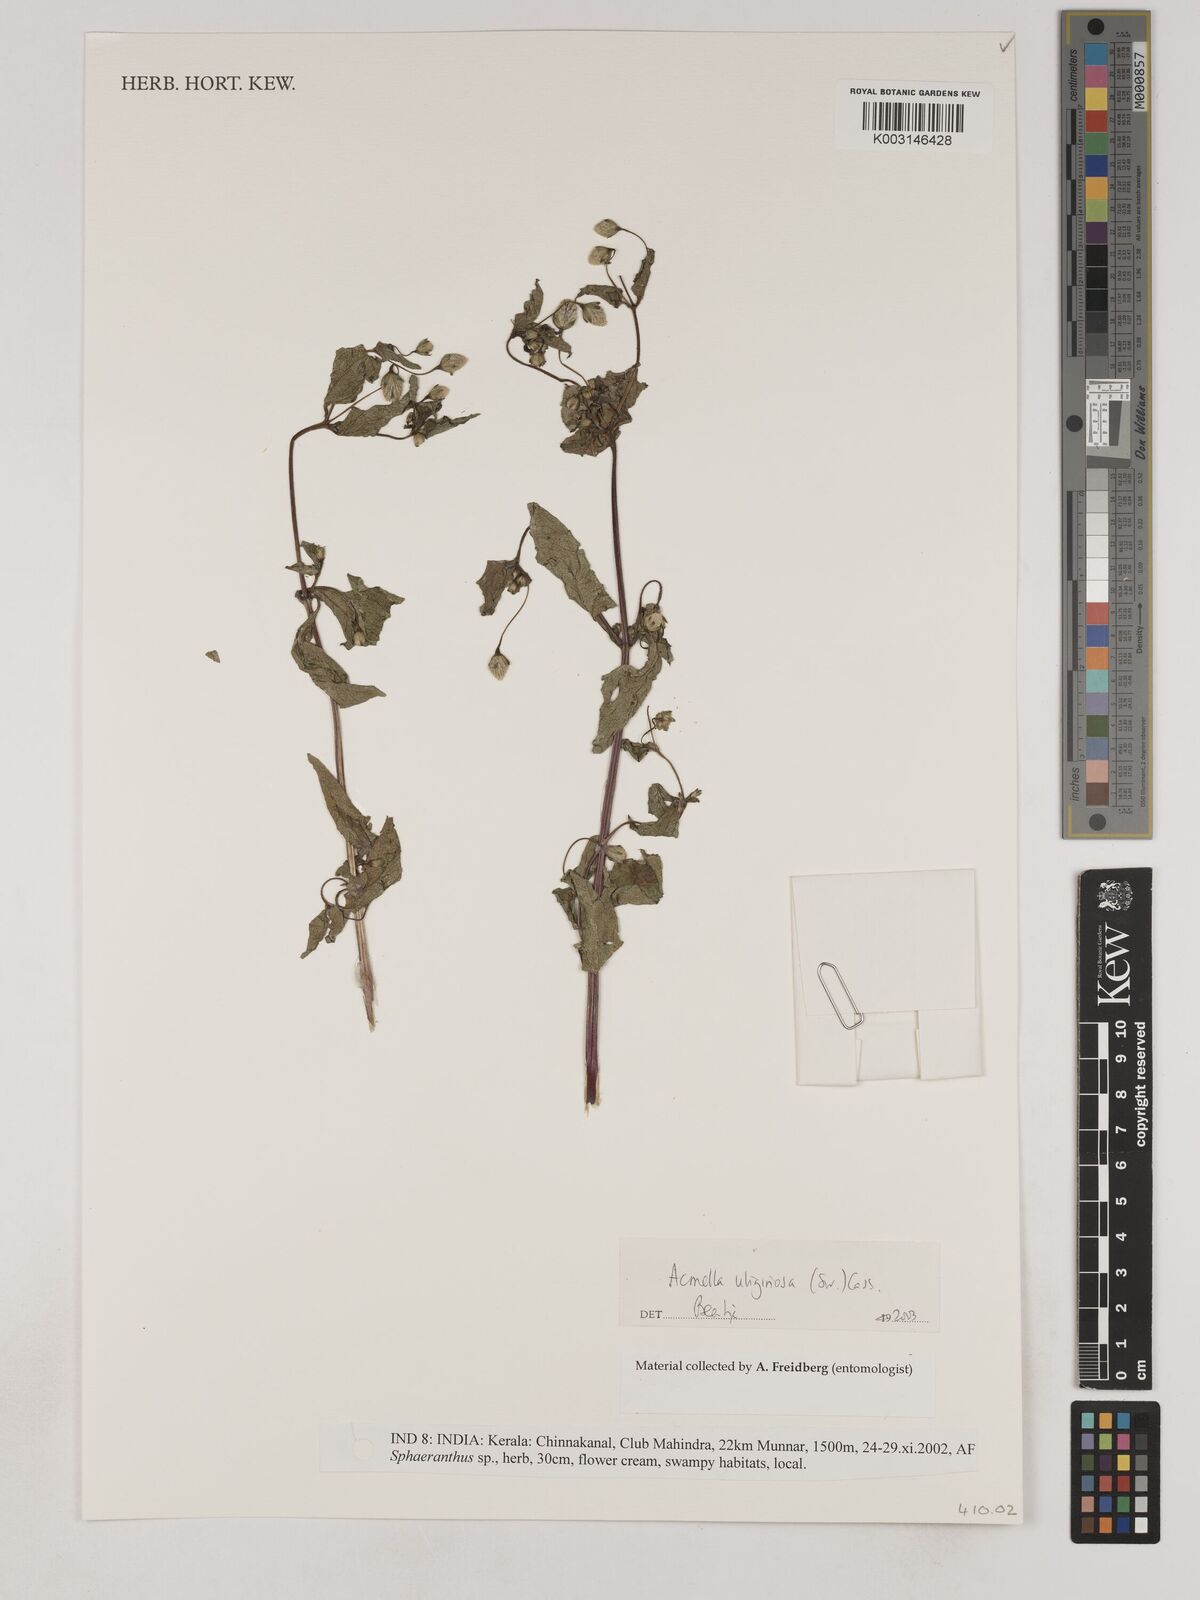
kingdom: Plantae
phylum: Tracheophyta
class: Magnoliopsida
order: Asterales
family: Asteraceae
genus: Acmella
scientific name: Acmella uliginosa
